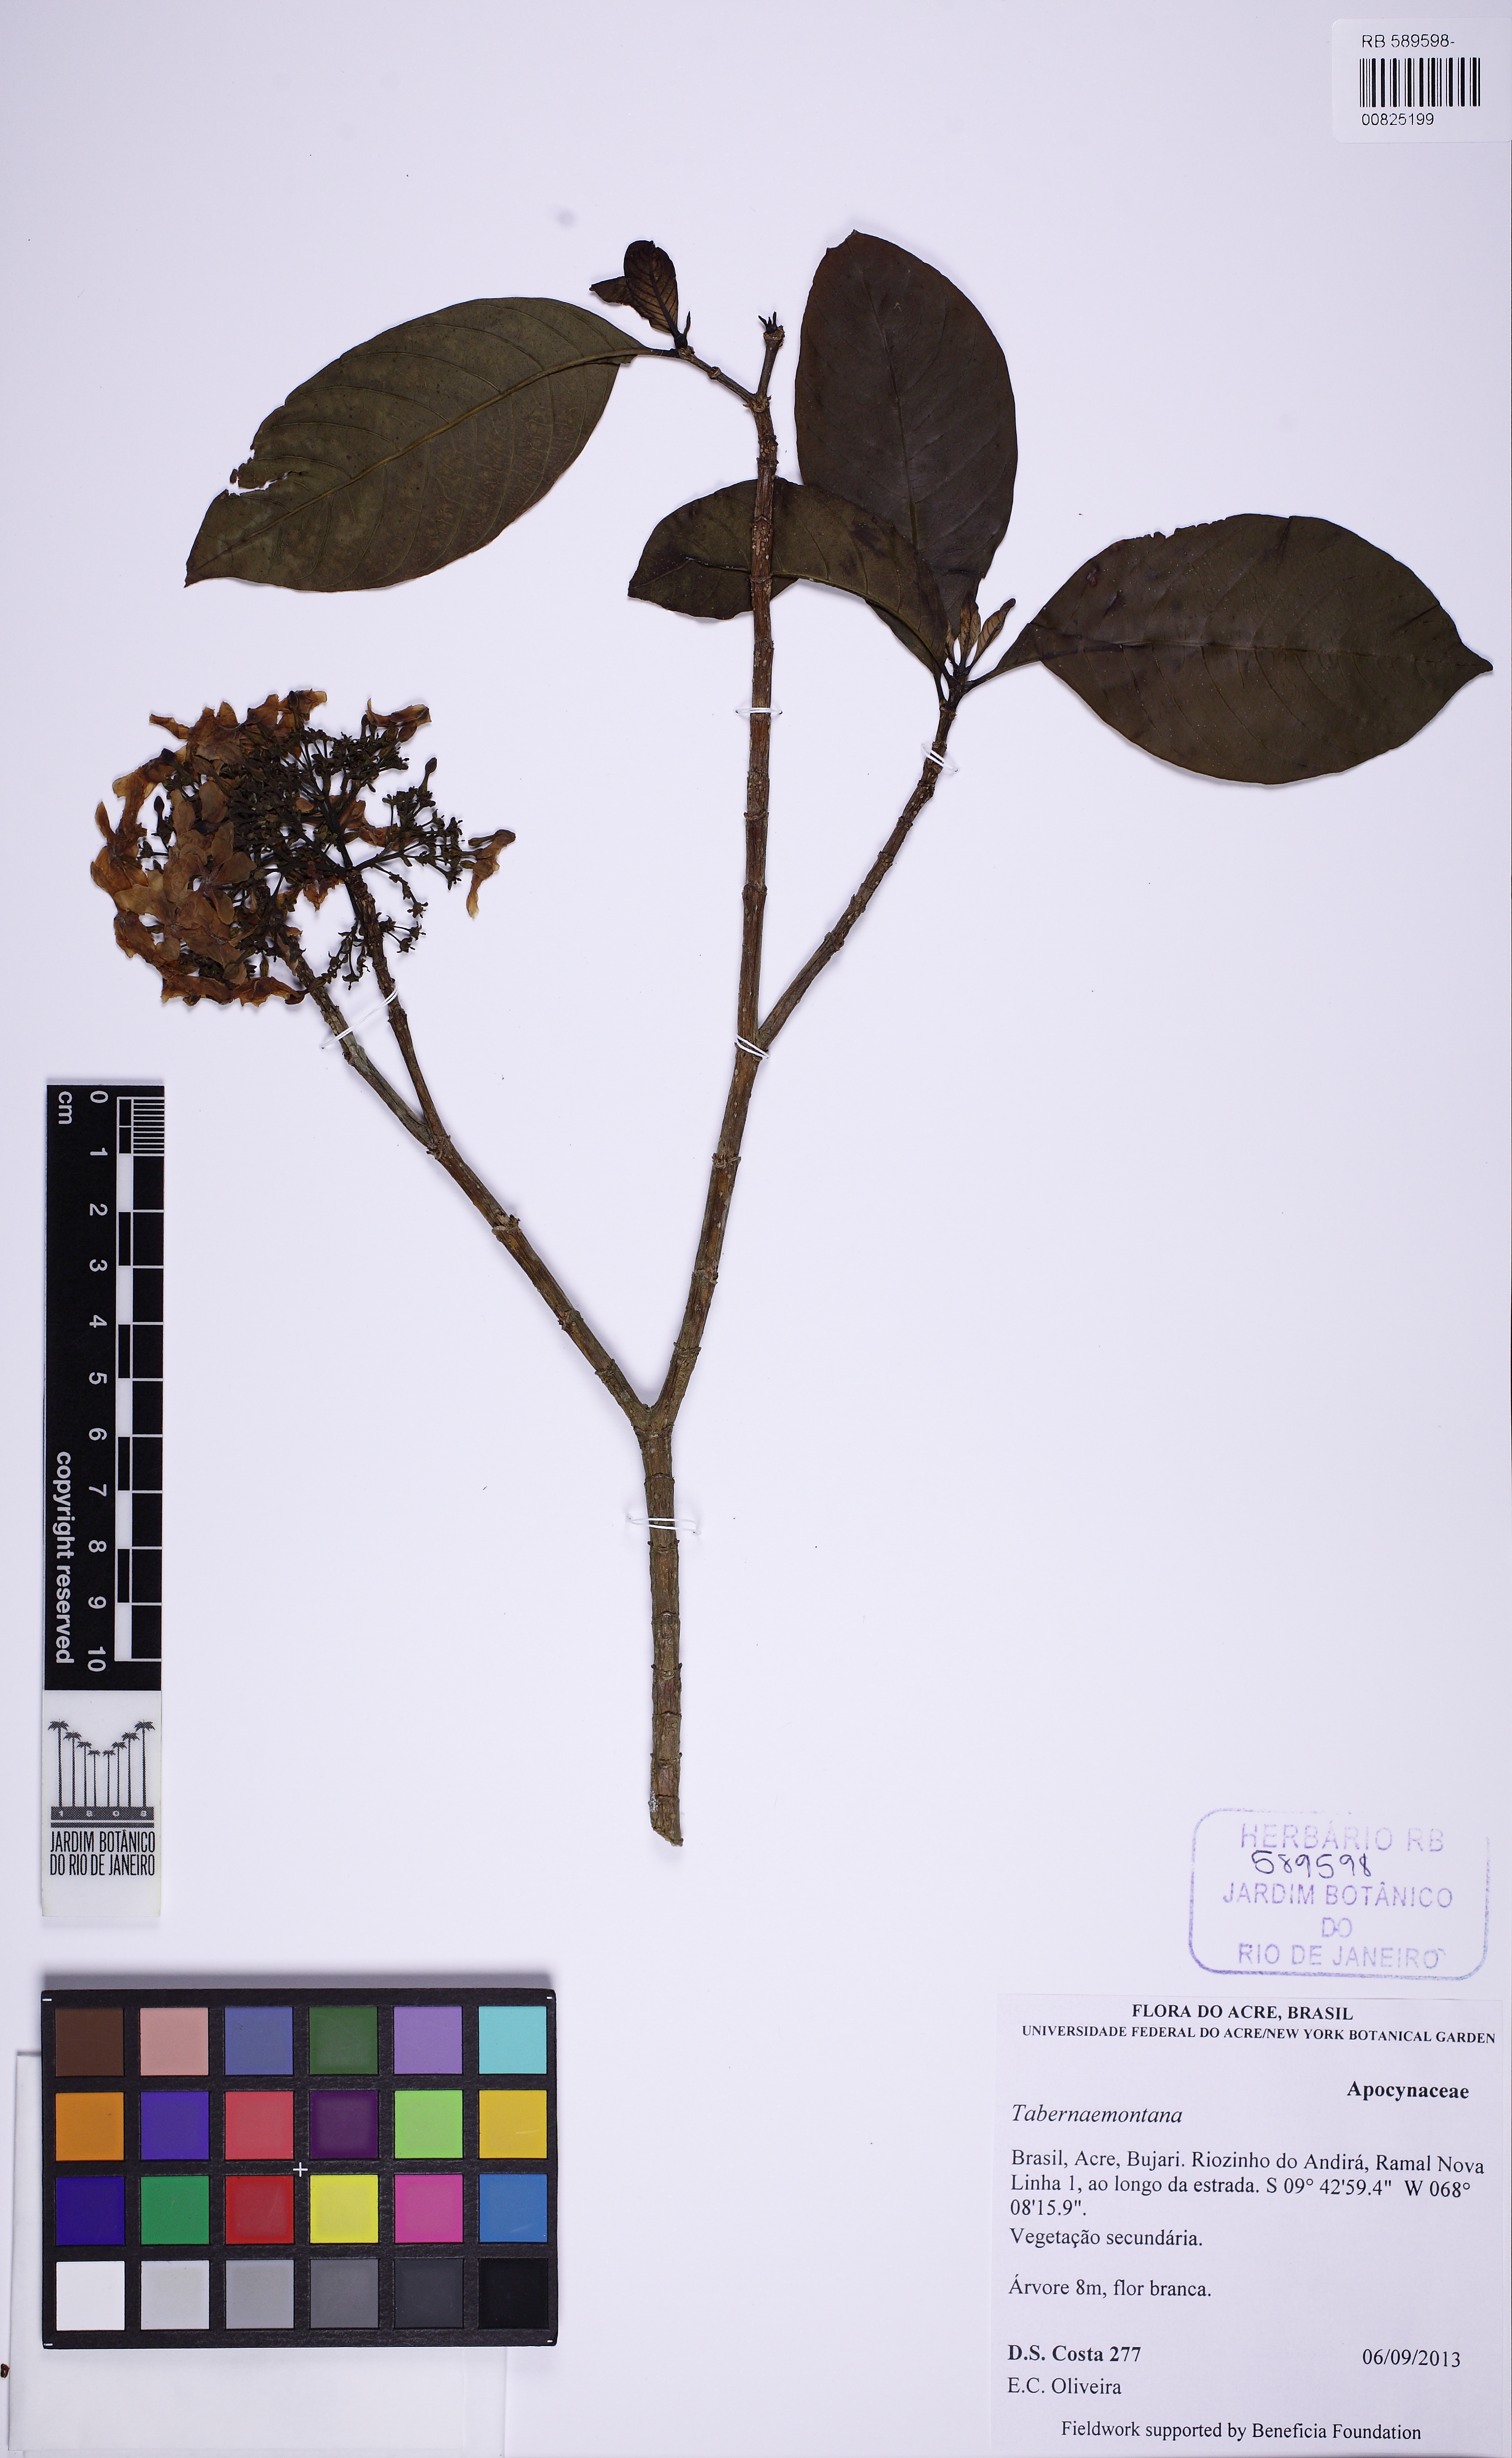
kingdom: Plantae
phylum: Tracheophyta
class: Magnoliopsida
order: Gentianales
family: Apocynaceae
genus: Tabernaemontana
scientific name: Tabernaemontana lagenaria
